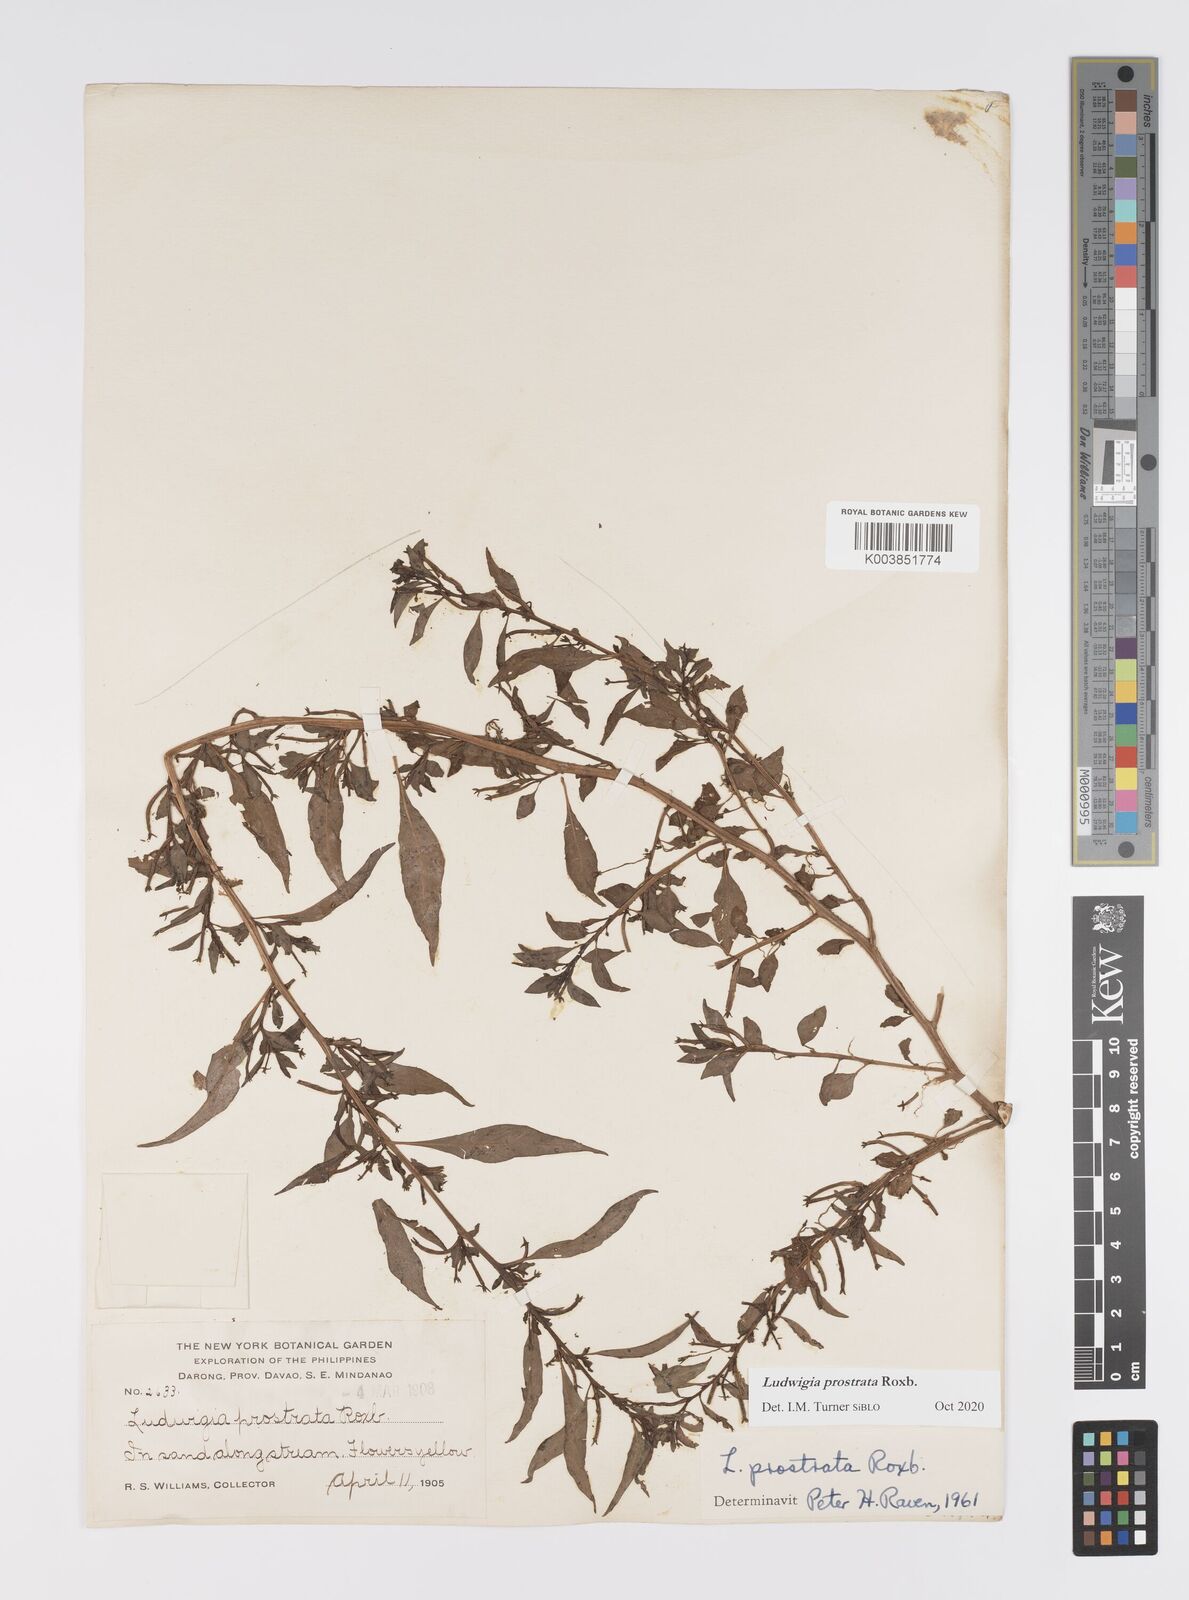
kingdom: Plantae
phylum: Tracheophyta
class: Magnoliopsida
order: Myrtales
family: Onagraceae
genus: Ludwigia
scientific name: Ludwigia prostrata
